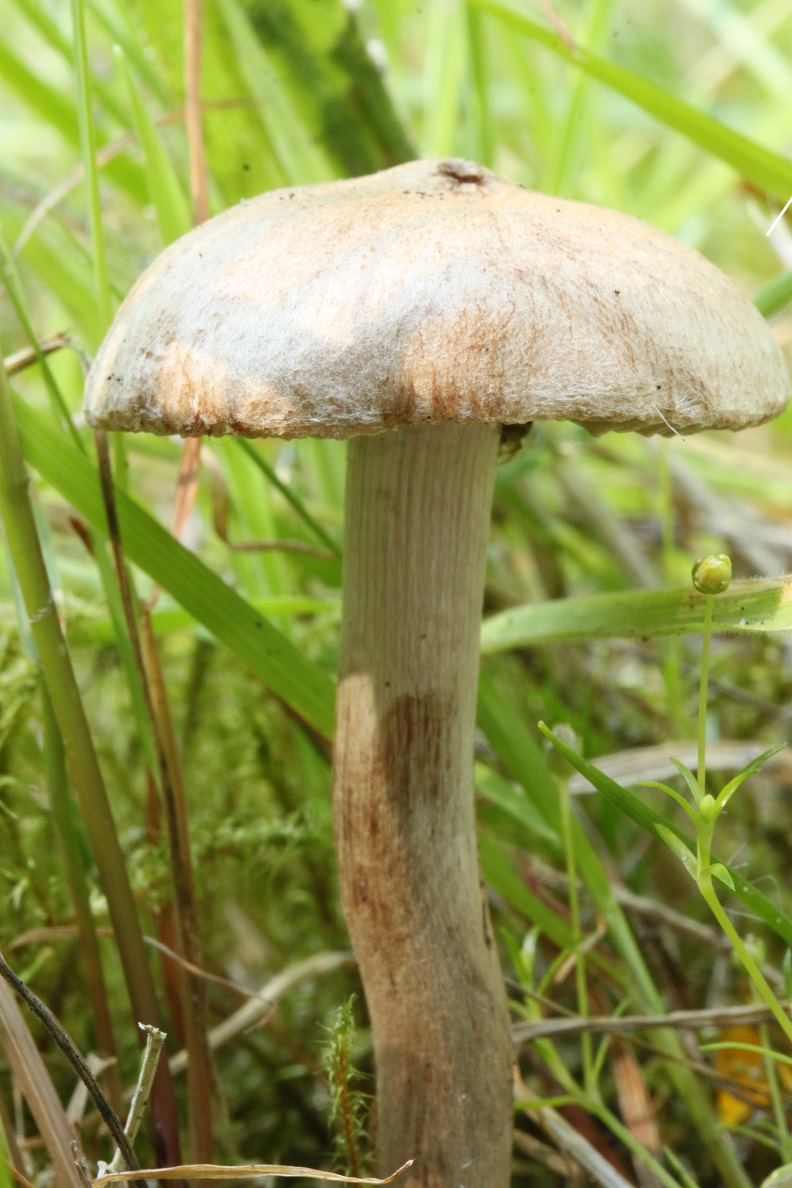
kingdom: Fungi
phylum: Basidiomycota
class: Agaricomycetes
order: Agaricales
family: Inocybaceae
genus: Inocybe
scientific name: Inocybe lacera
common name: laset trævlhat
